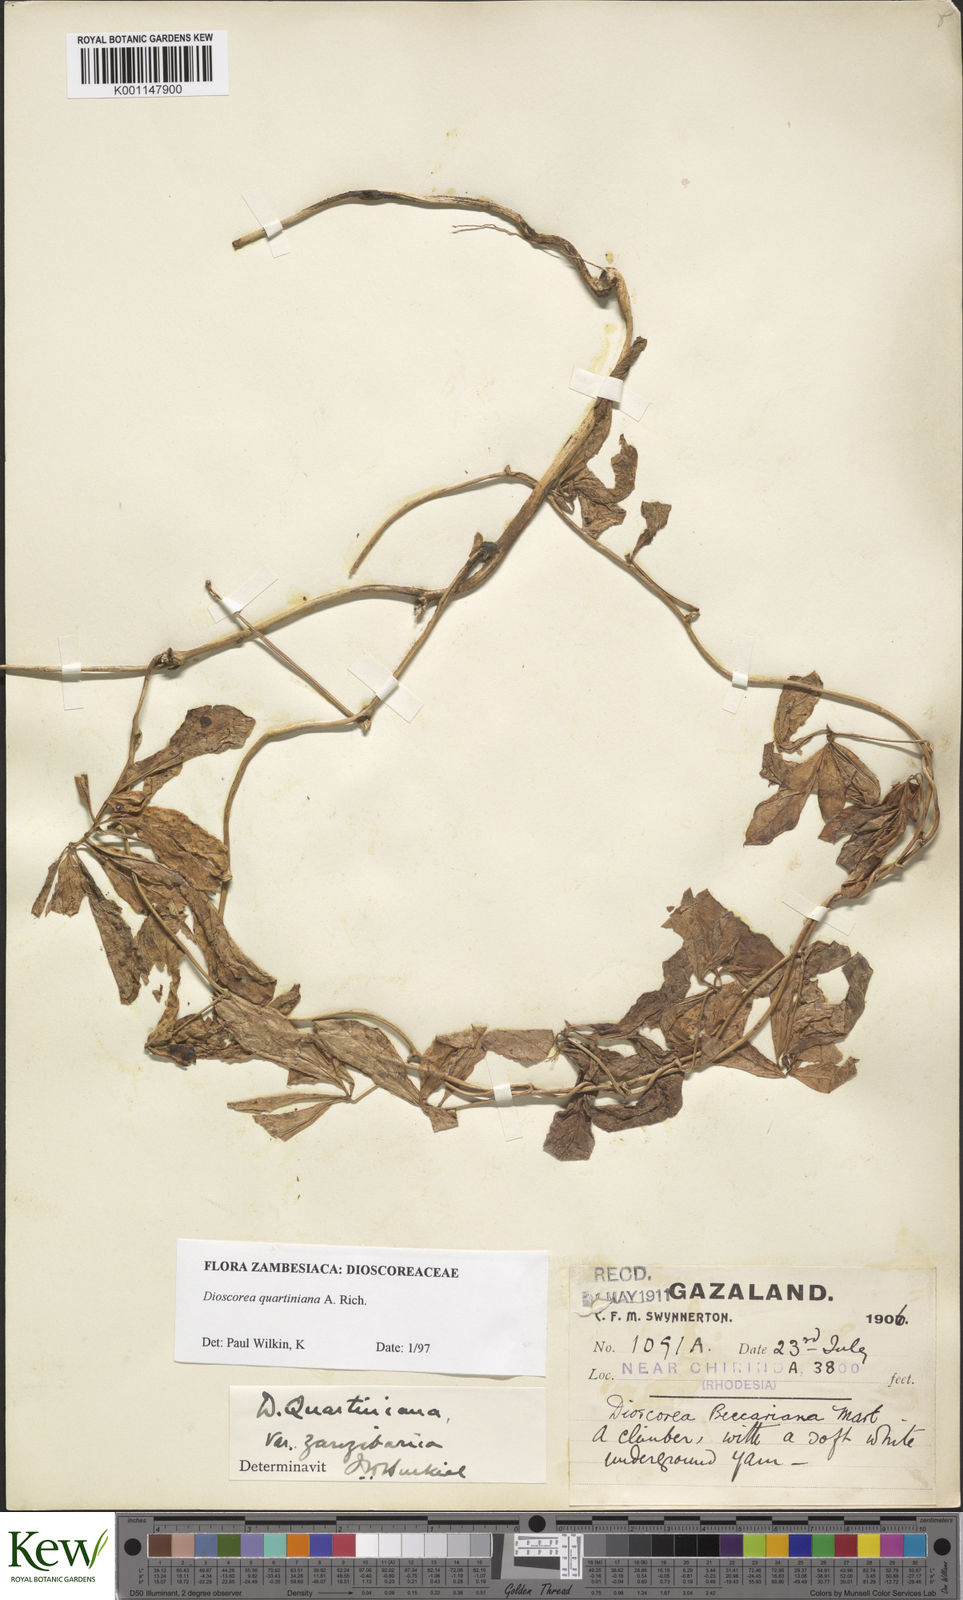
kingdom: Plantae
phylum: Tracheophyta
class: Liliopsida
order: Dioscoreales
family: Dioscoreaceae
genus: Dioscorea
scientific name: Dioscorea quartiniana
